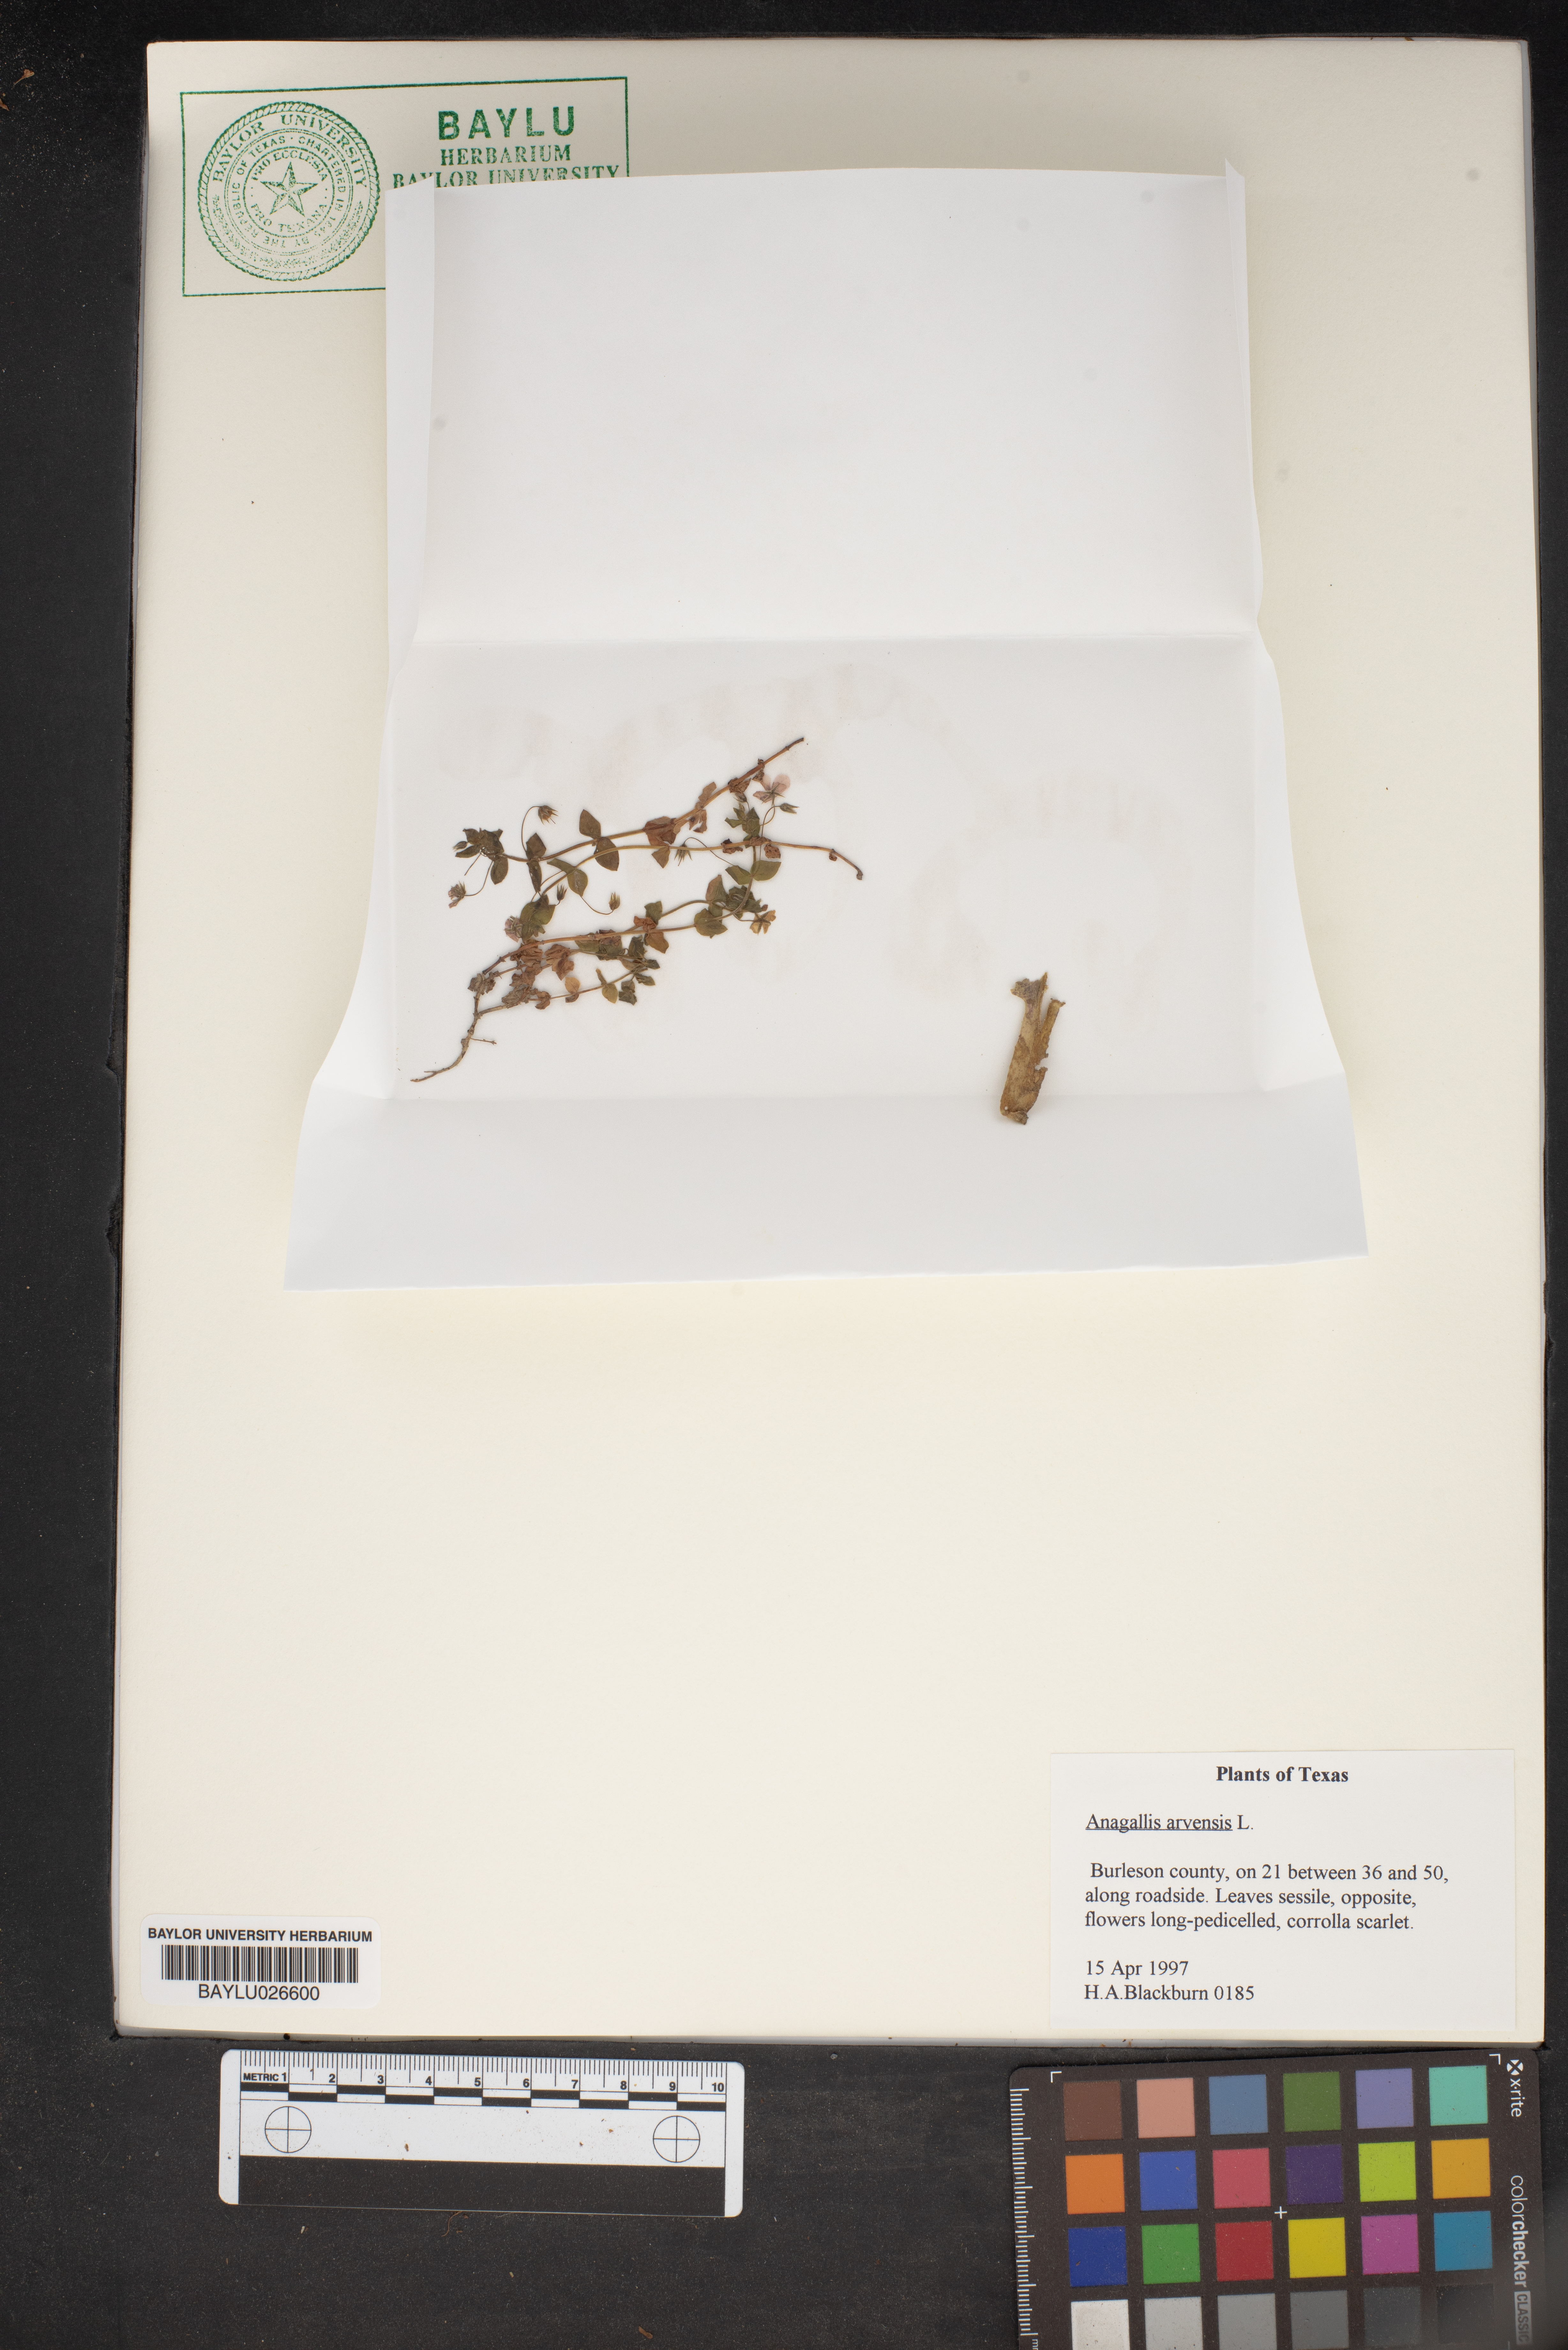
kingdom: Plantae
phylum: Tracheophyta
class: Magnoliopsida
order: Ericales
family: Primulaceae
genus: Lysimachia
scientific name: Lysimachia arvensis
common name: Scarlet pimpernel
